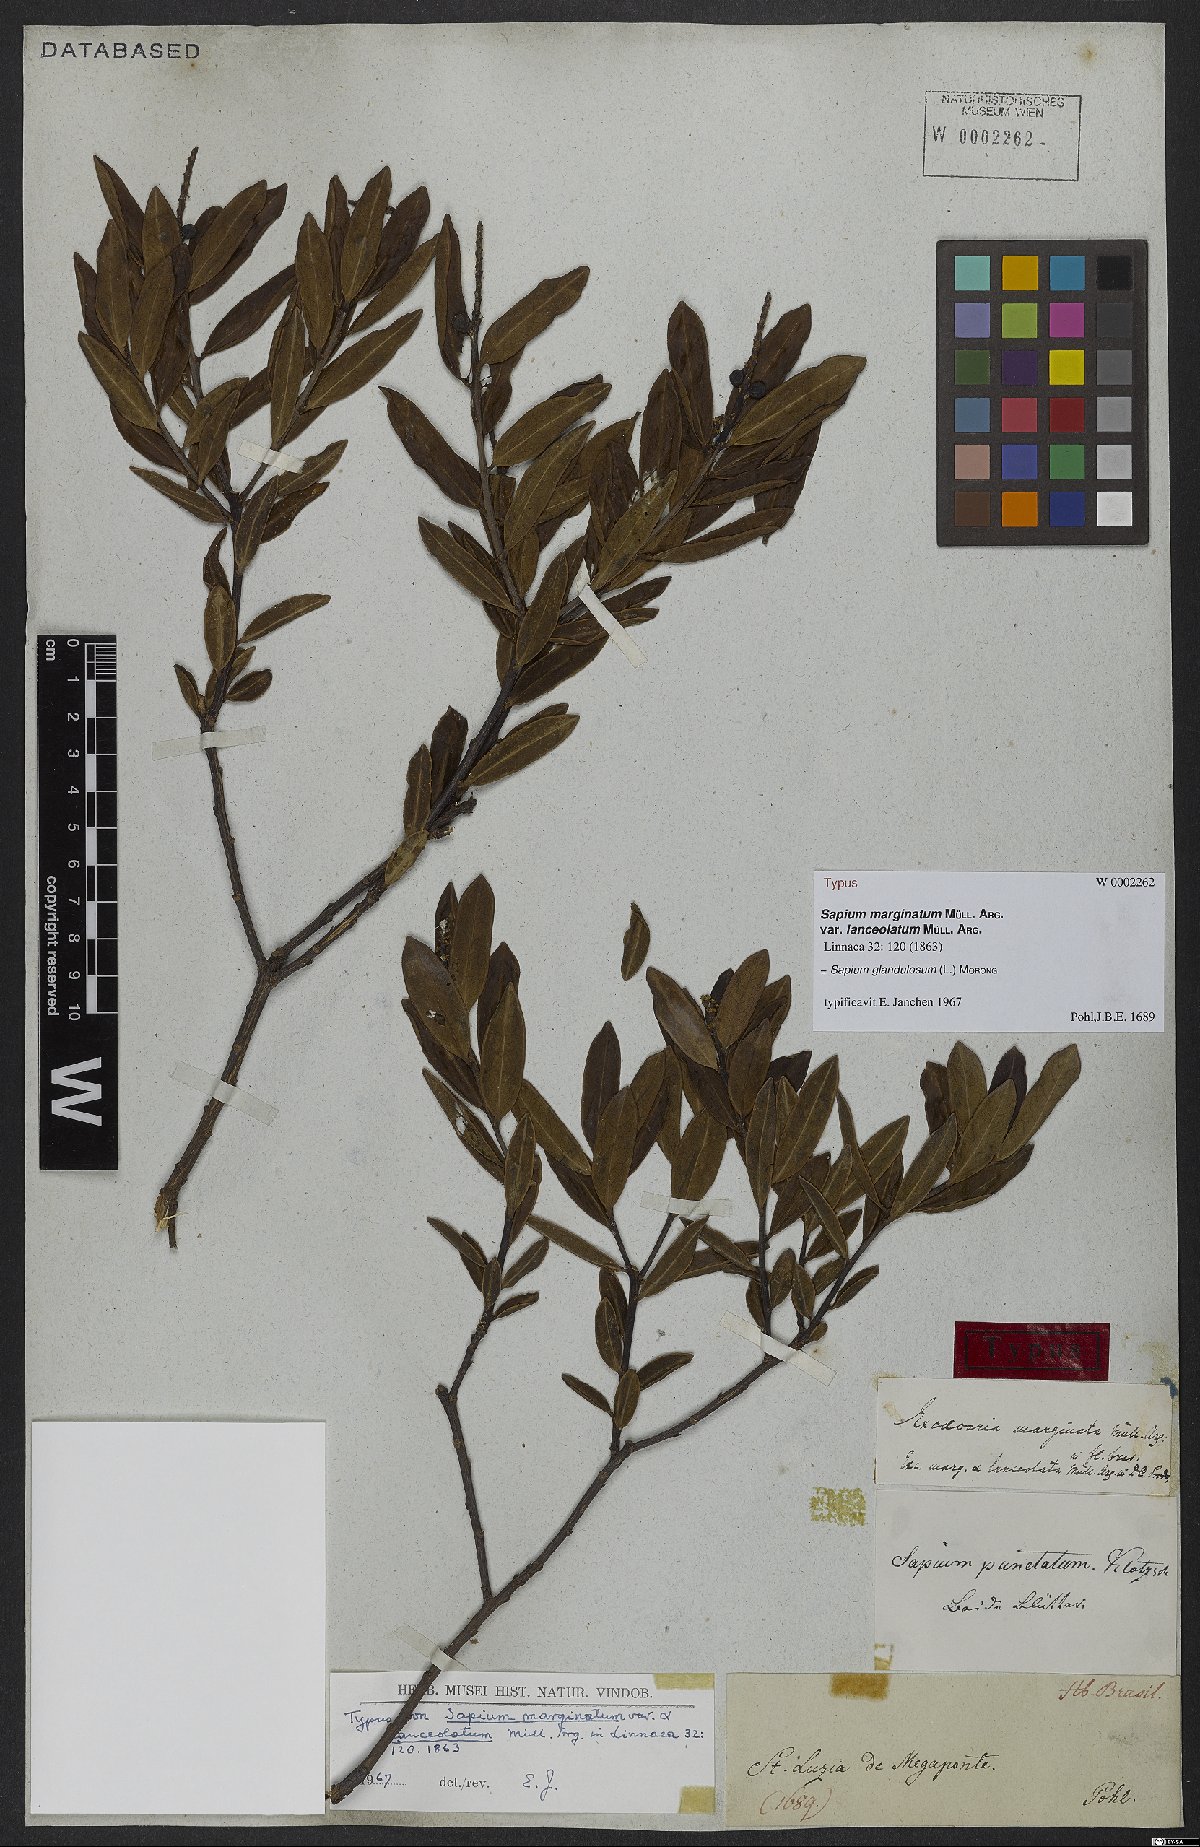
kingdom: Plantae
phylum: Tracheophyta
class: Magnoliopsida
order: Malpighiales
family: Euphorbiaceae
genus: Sapium
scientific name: Sapium glandulosum
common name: Milktree
